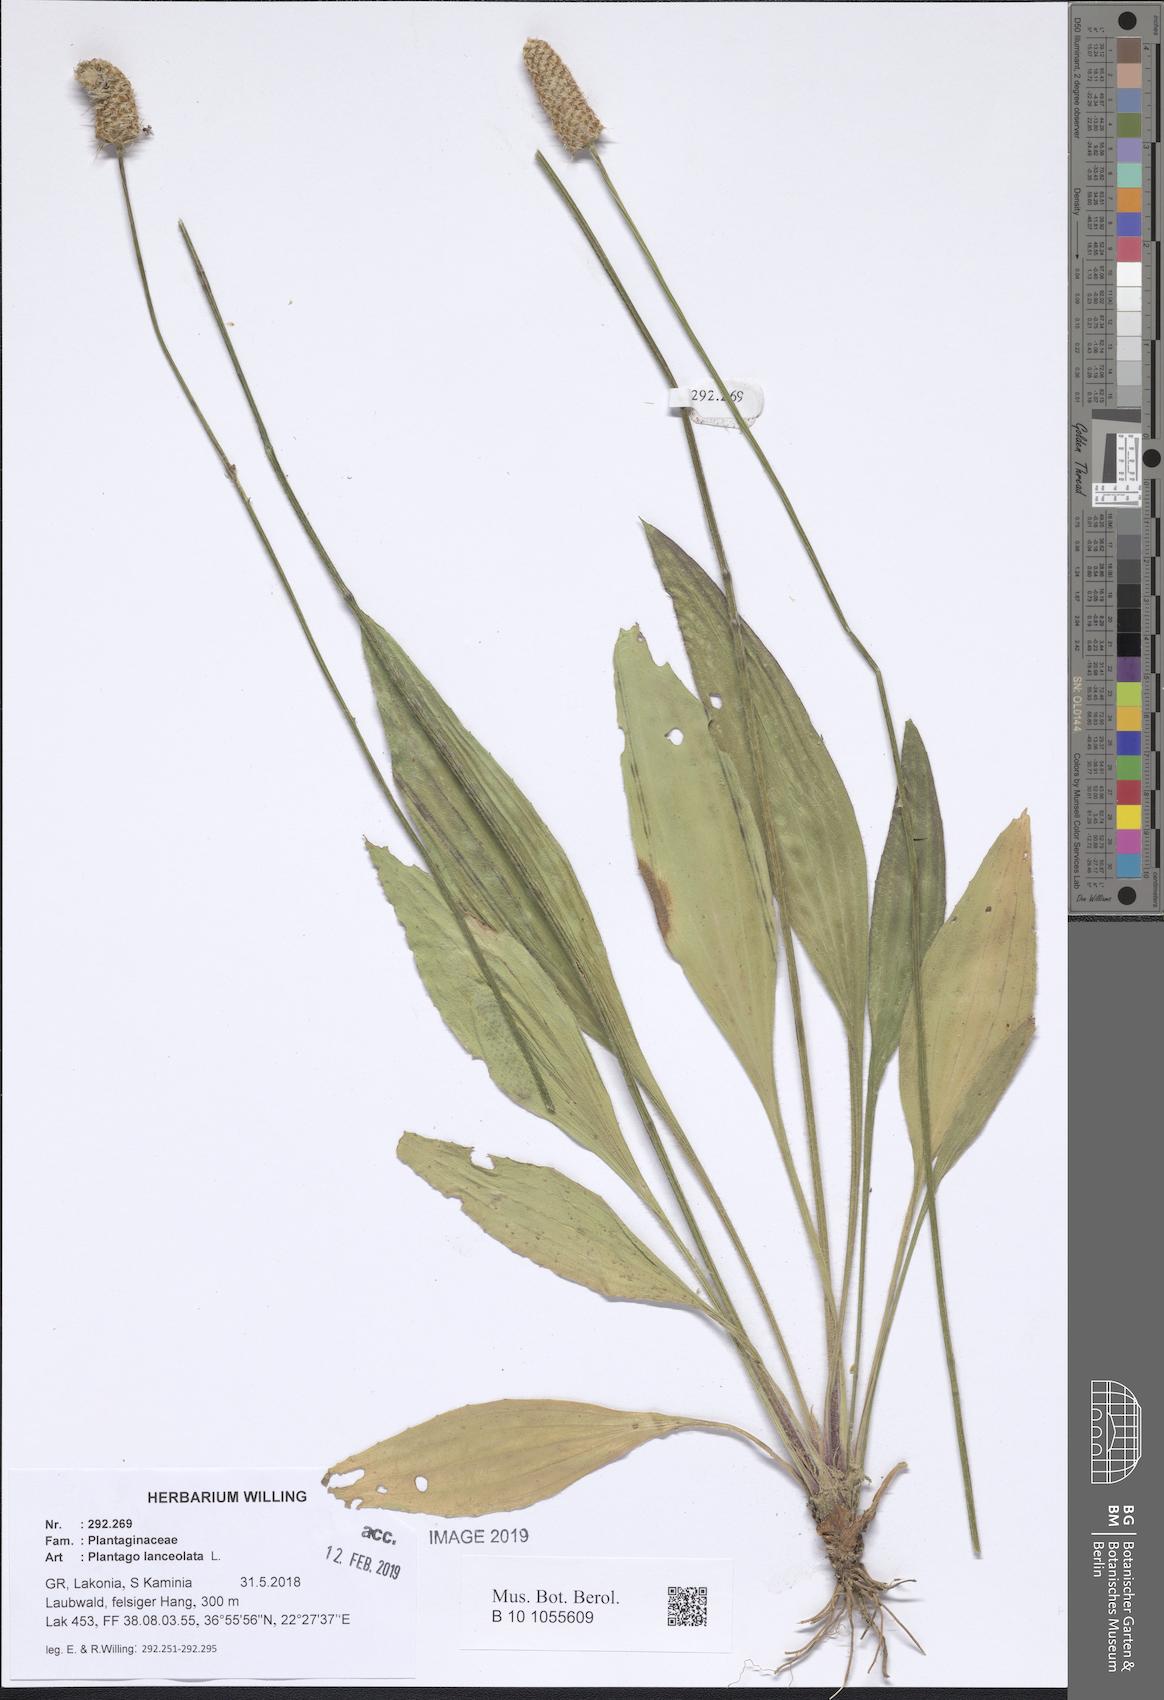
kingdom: Plantae
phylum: Tracheophyta
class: Magnoliopsida
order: Lamiales
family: Plantaginaceae
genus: Plantago
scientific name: Plantago lanceolata
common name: Ribwort plantain
